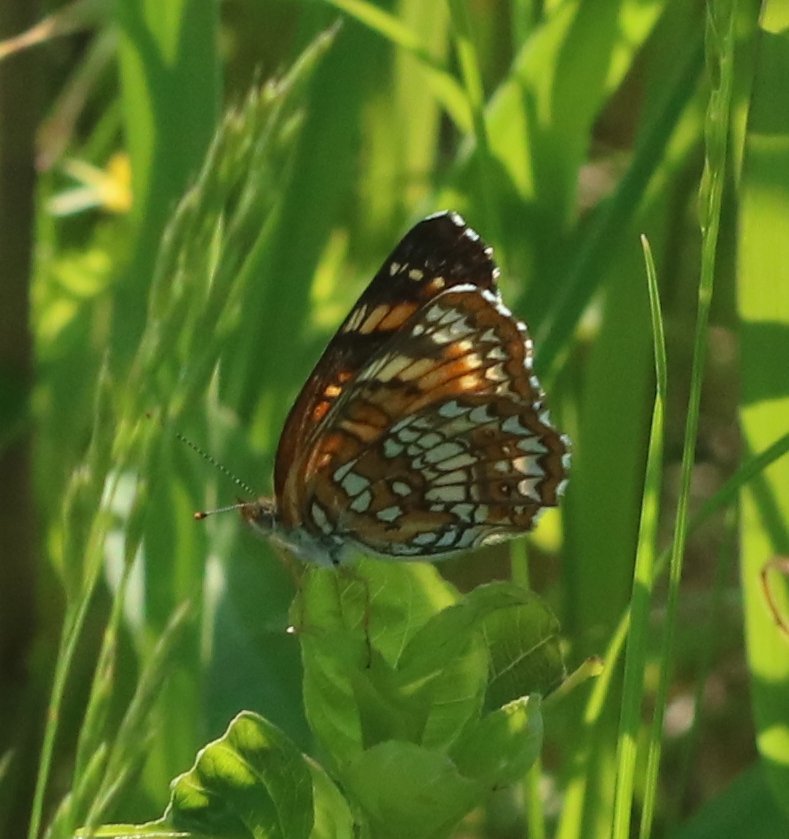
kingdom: Animalia
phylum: Arthropoda
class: Insecta
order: Lepidoptera
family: Nymphalidae
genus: Chlosyne
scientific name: Chlosyne harrisii
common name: Harris's Checkerspot
